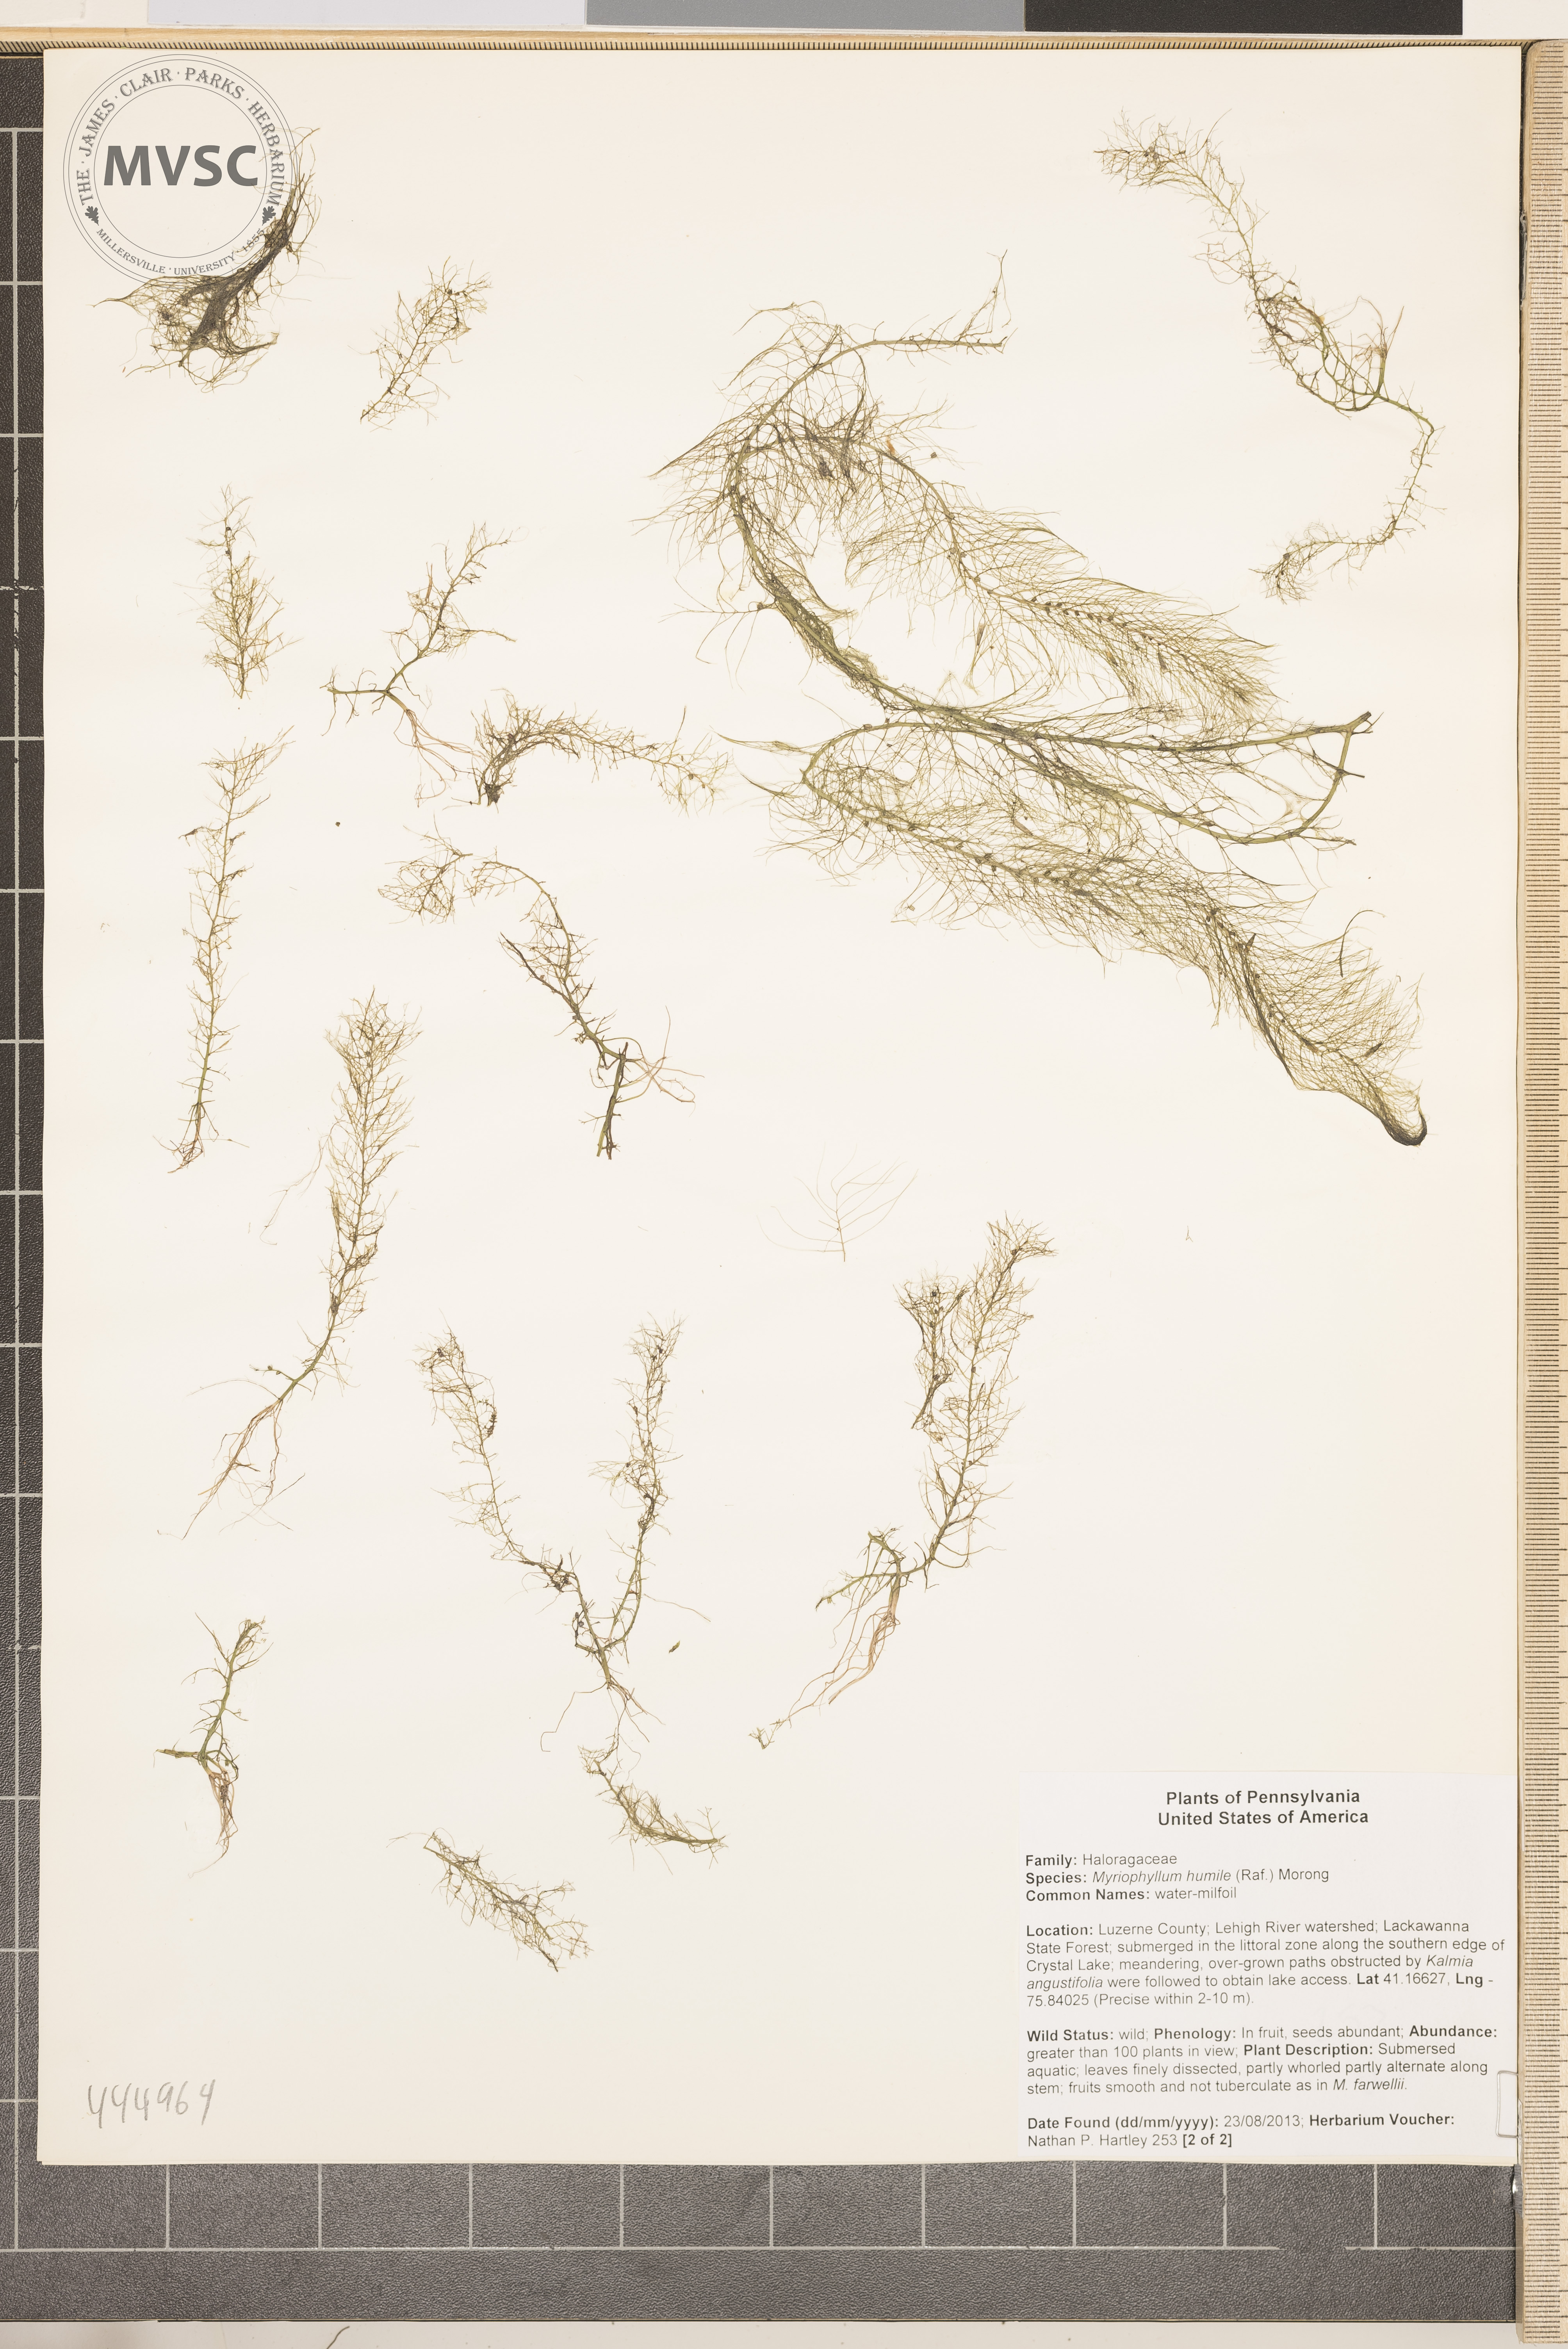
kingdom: Plantae
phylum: Tracheophyta
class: Magnoliopsida
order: Saxifragales
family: Haloragaceae
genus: Myriophyllum
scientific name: Myriophyllum humile
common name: water milfoil
